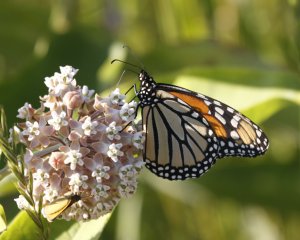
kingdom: Animalia
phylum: Arthropoda
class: Insecta
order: Lepidoptera
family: Nymphalidae
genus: Danaus
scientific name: Danaus plexippus
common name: Monarch
